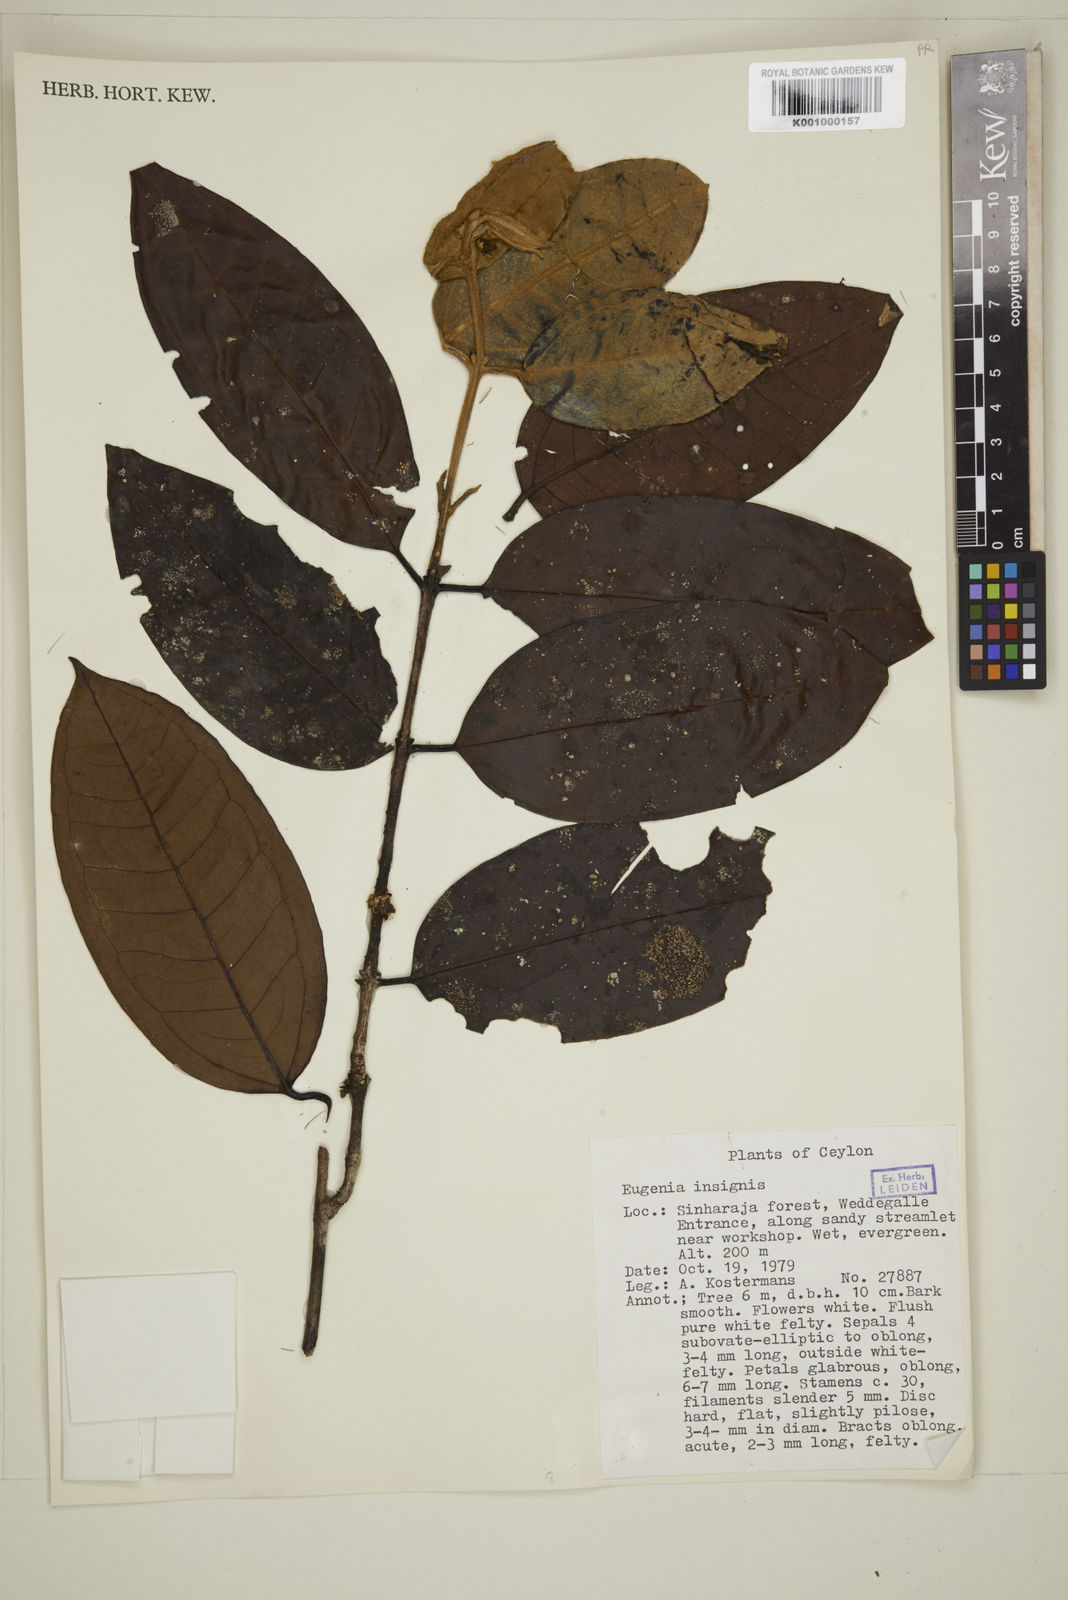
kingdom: Plantae
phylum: Tracheophyta
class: Magnoliopsida
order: Myrtales
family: Myrtaceae
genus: Eugenia
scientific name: Eugenia fulva
